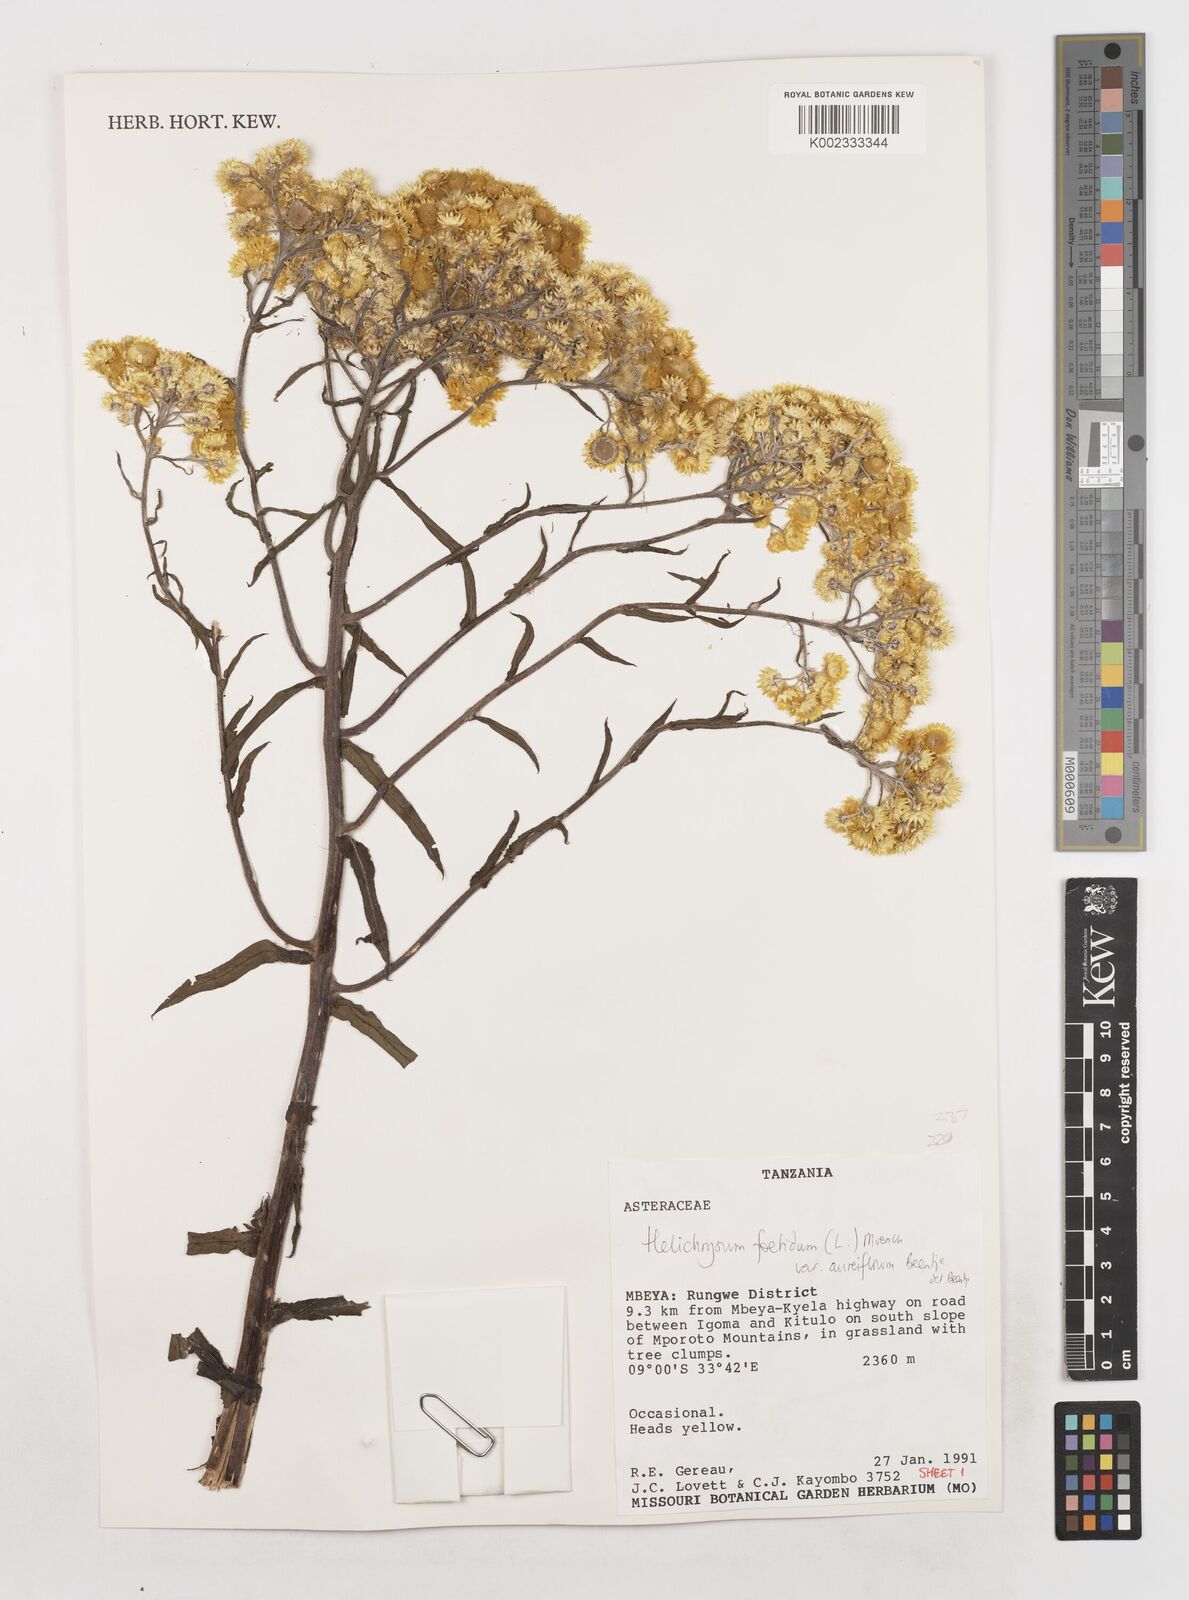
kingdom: Plantae
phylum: Tracheophyta
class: Magnoliopsida
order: Asterales
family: Asteraceae
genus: Helichrysum
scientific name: Helichrysum foetidum
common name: Stinking everlasting
